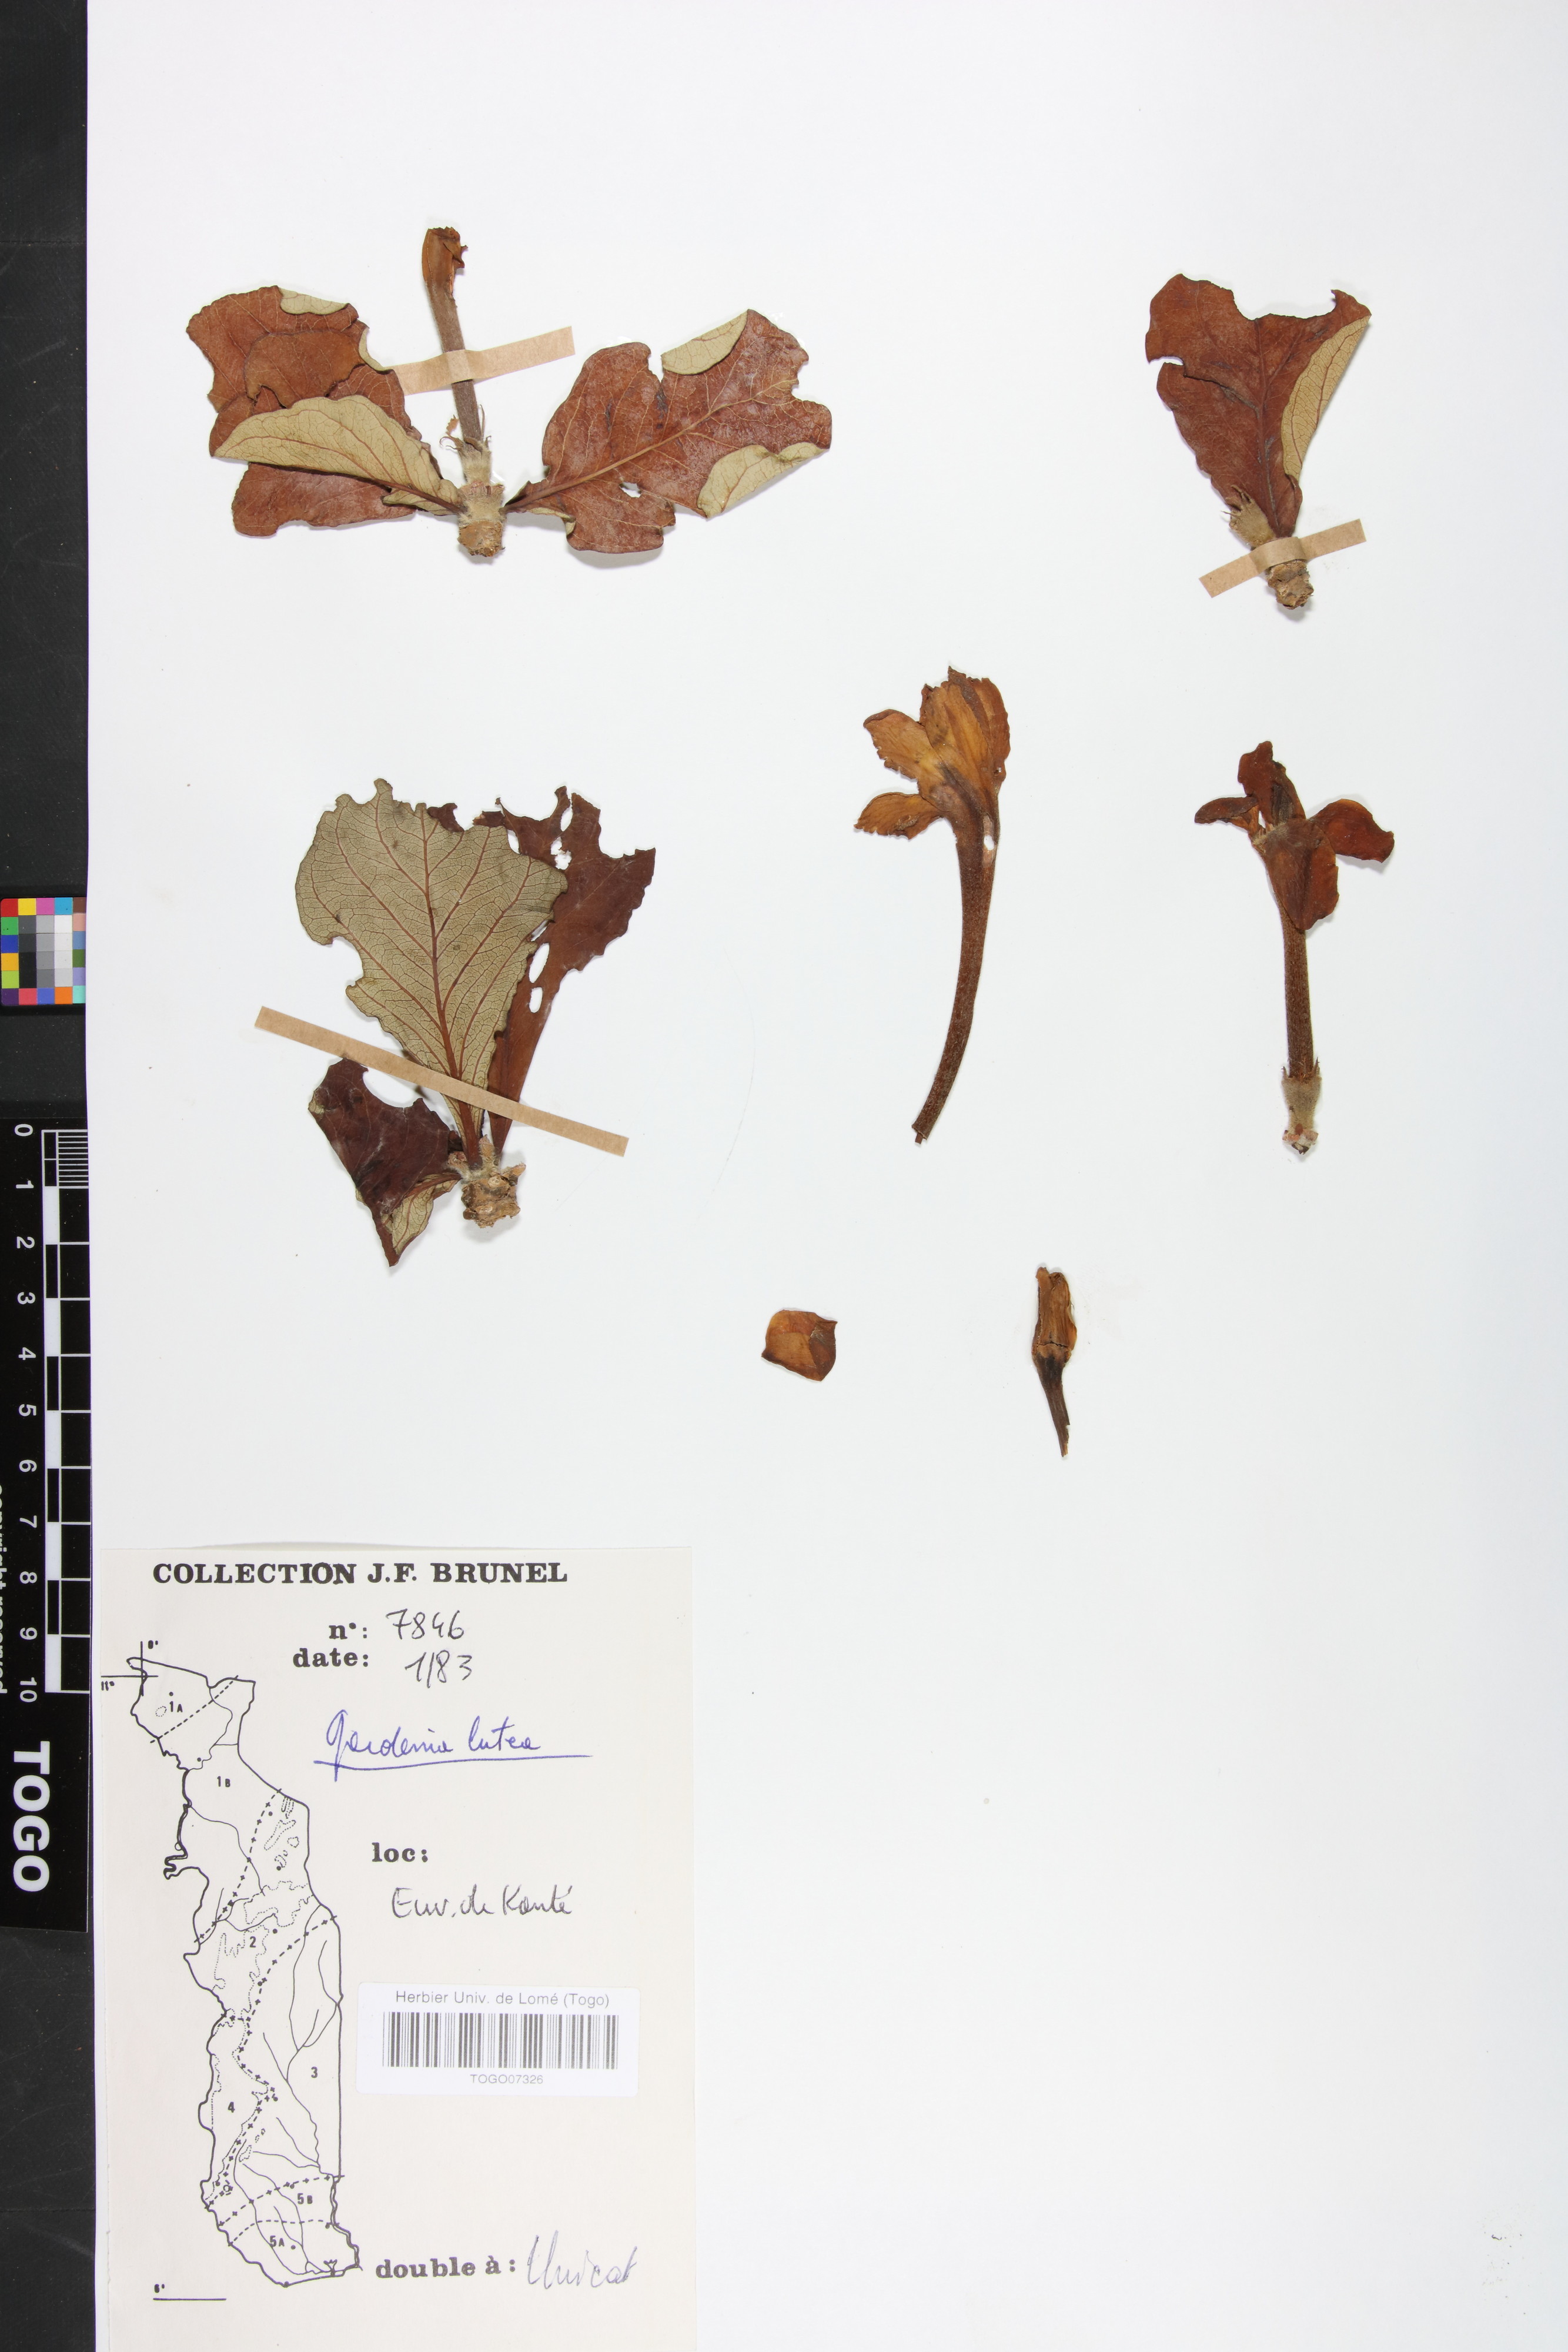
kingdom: Plantae
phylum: Tracheophyta
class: Magnoliopsida
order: Gentianales
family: Rubiaceae
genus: Gardenia
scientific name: Gardenia ternifolia
